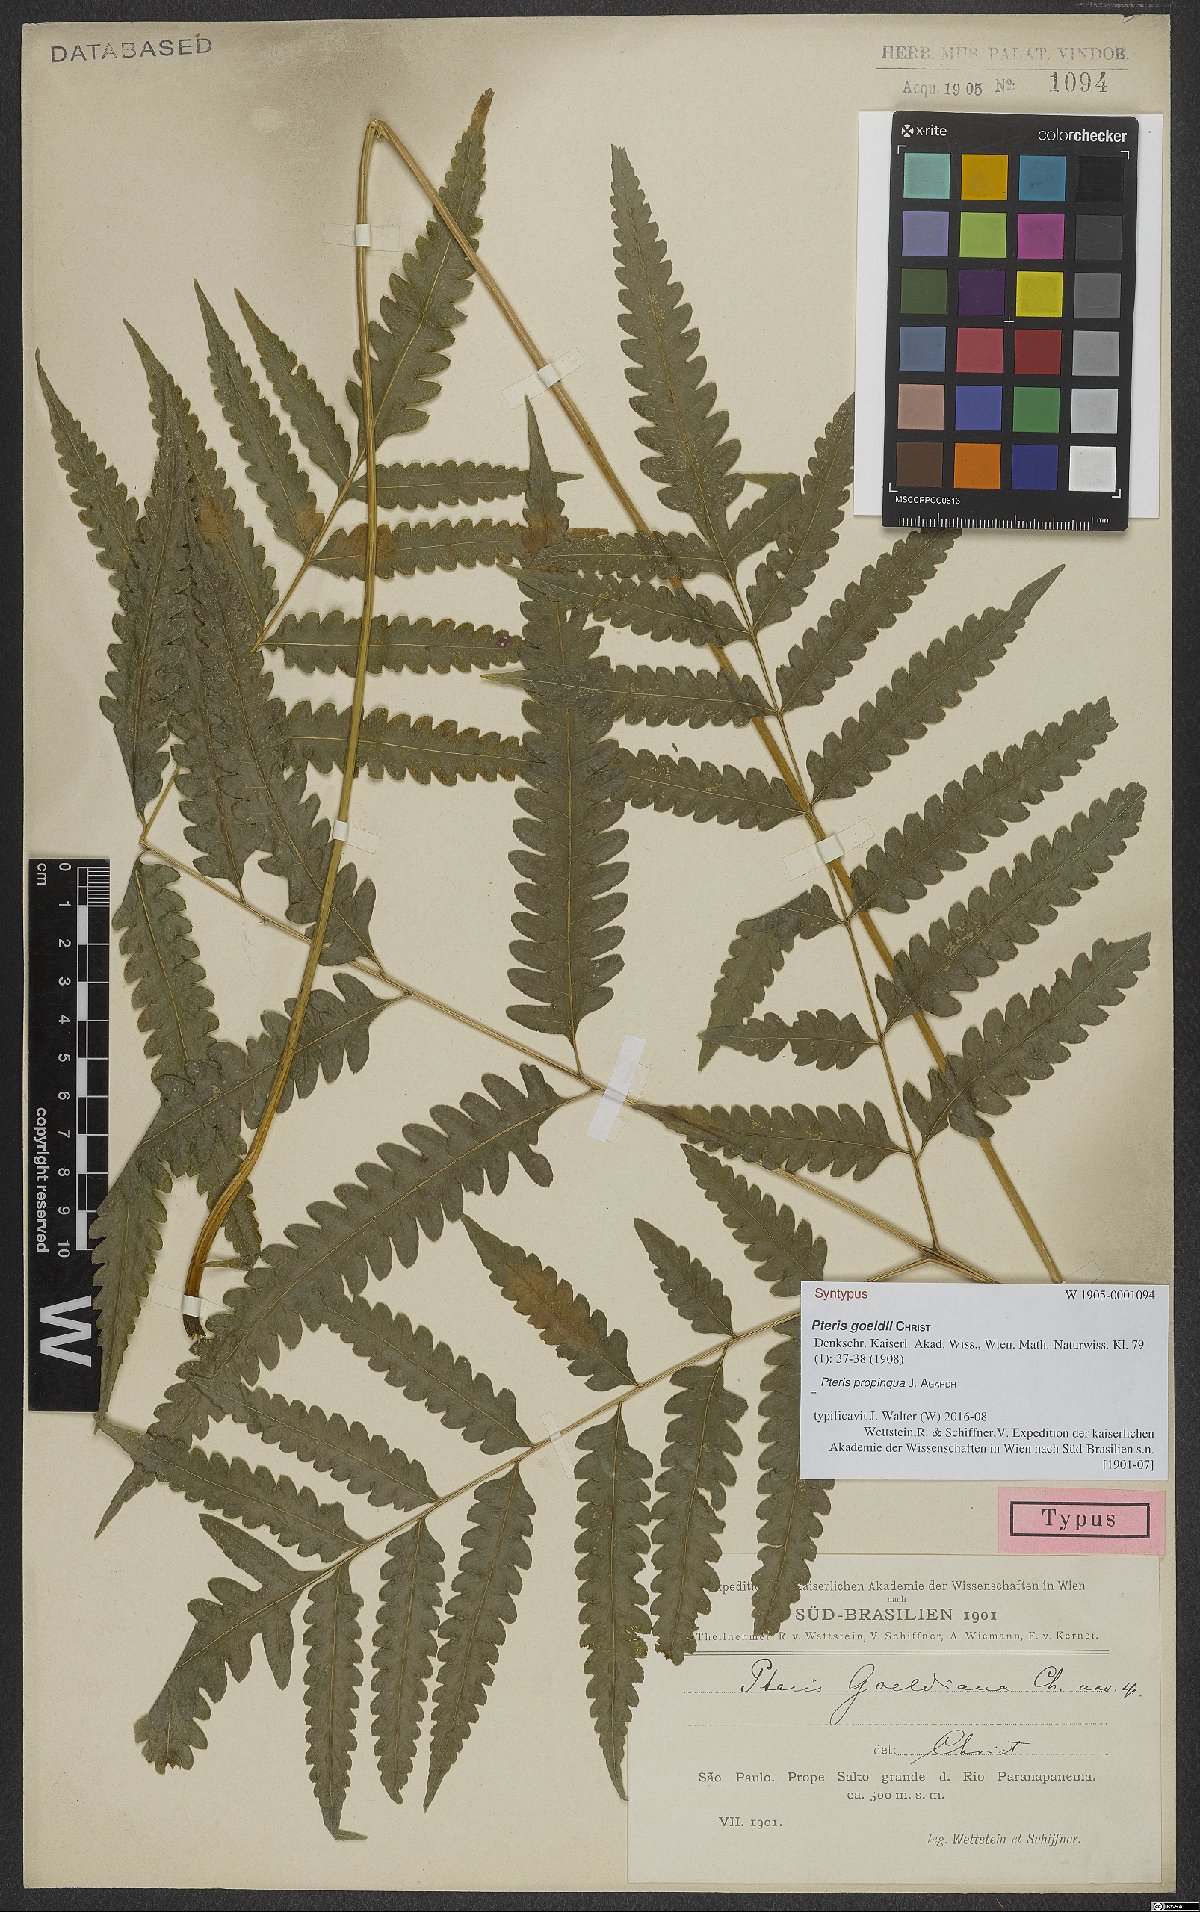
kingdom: Plantae
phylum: Tracheophyta
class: Polypodiopsida
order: Polypodiales
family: Pteridaceae
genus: Pteris
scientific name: Pteris propinqua
